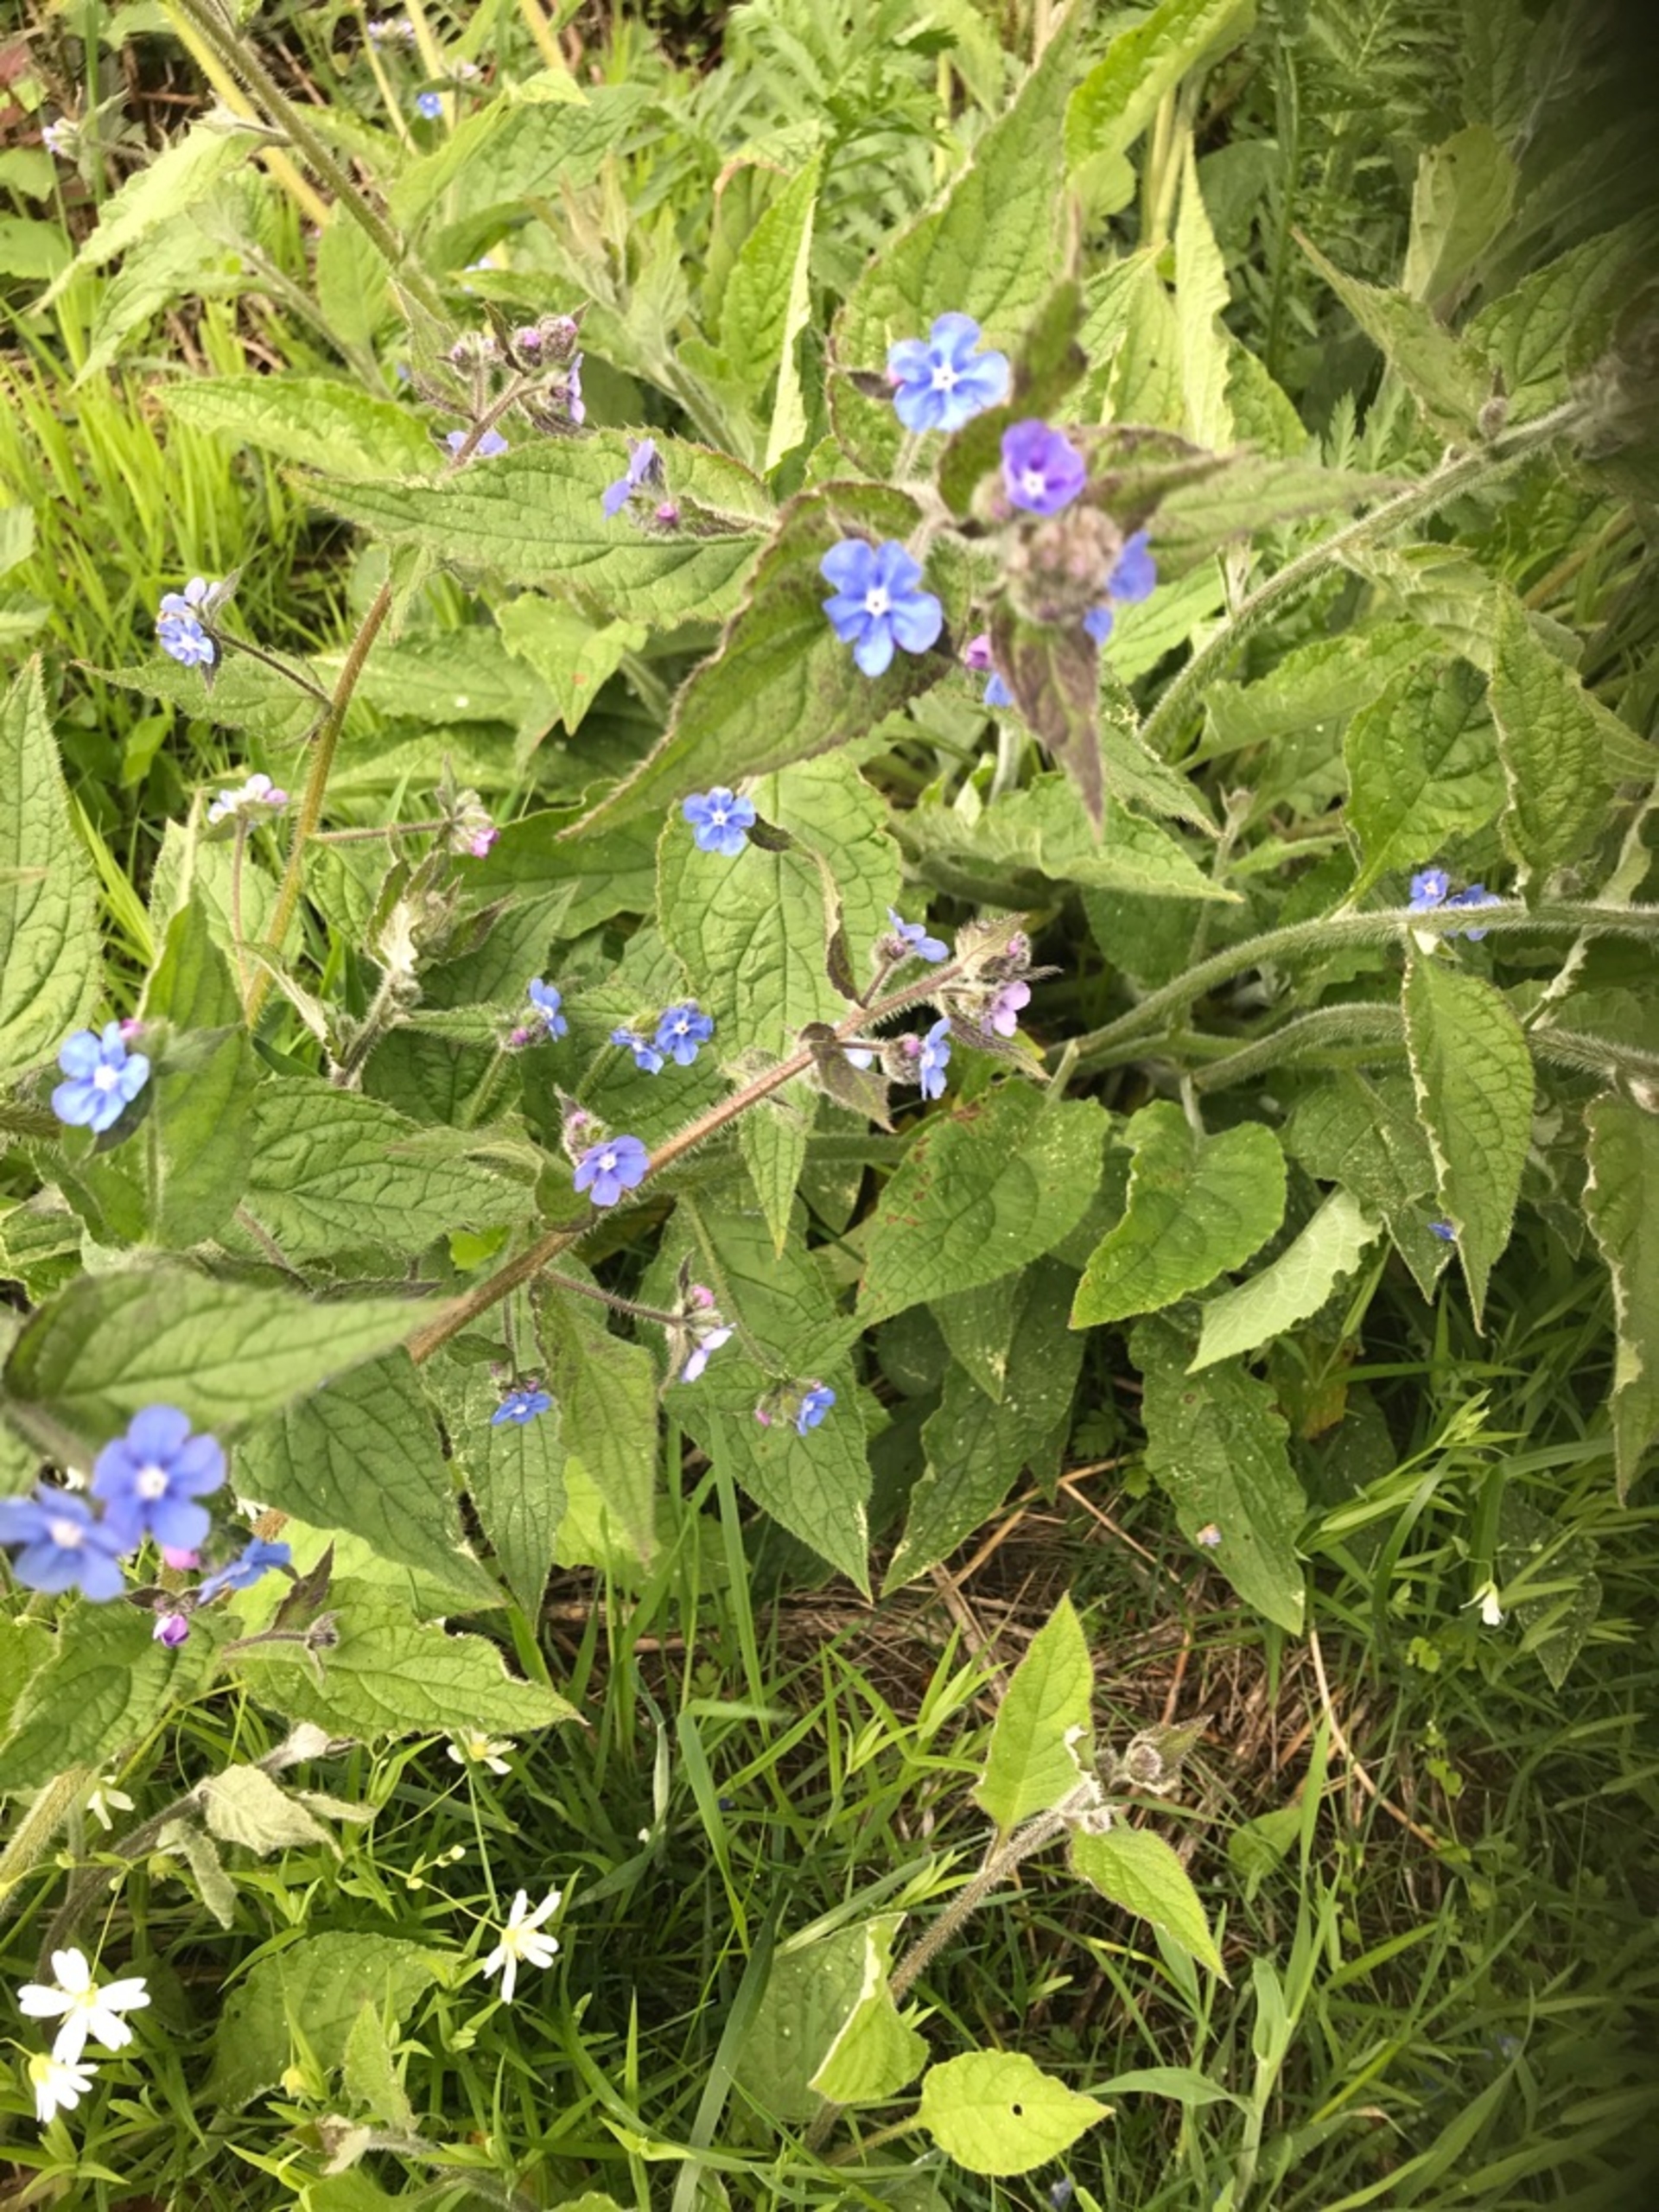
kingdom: Plantae
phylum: Tracheophyta
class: Magnoliopsida
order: Boraginales
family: Boraginaceae
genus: Pentaglottis
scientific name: Pentaglottis sempervirens
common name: Femtunge
